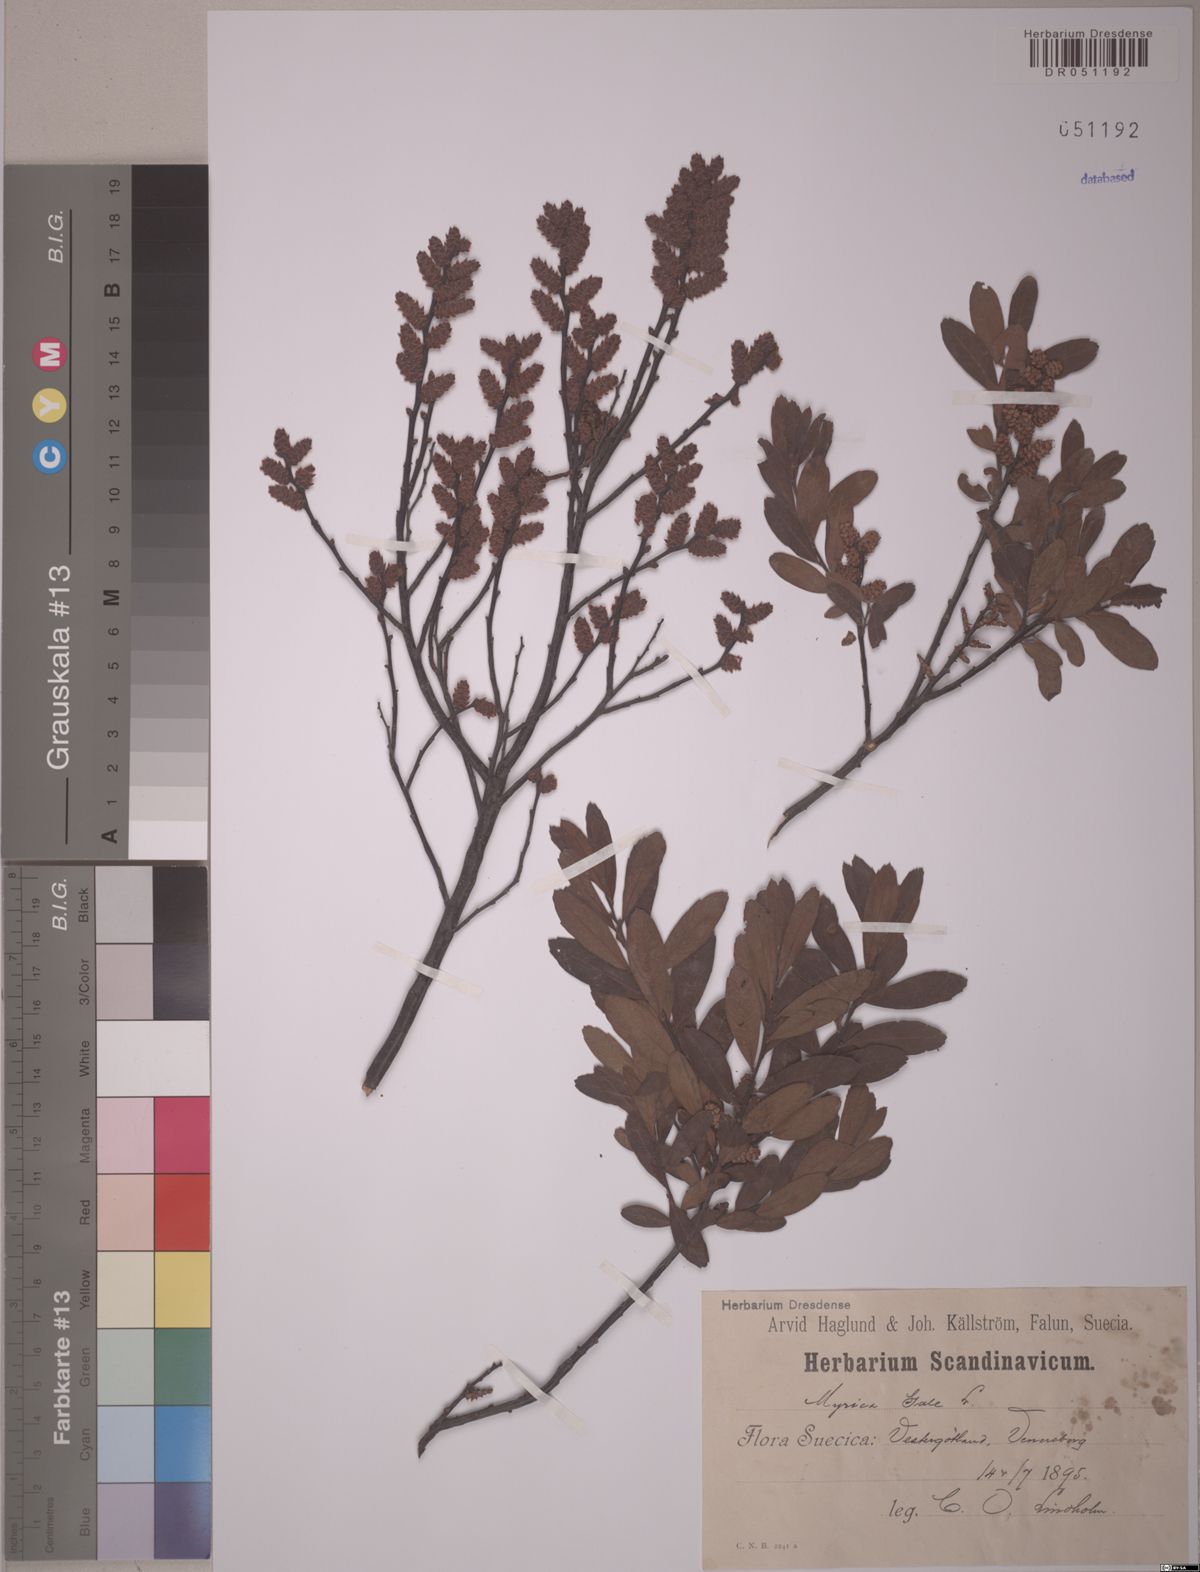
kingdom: Plantae
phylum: Tracheophyta
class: Magnoliopsida
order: Fagales
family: Myricaceae
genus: Myrica
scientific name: Myrica gale
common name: Sweet gale
